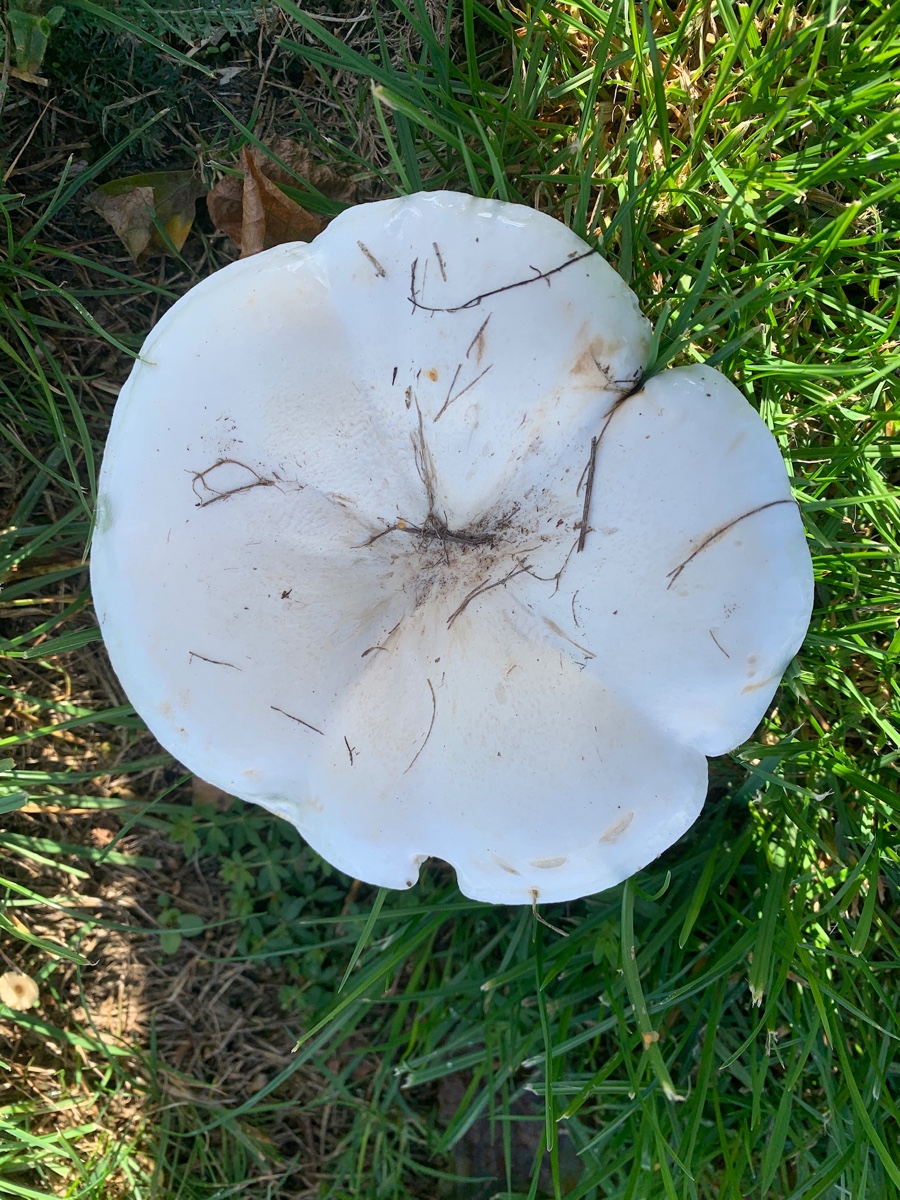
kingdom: Fungi
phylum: Basidiomycota
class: Agaricomycetes
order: Agaricales
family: Tricholomataceae
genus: Aspropaxillus
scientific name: Aspropaxillus giganteus
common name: kæmpe-tragtridderhat
